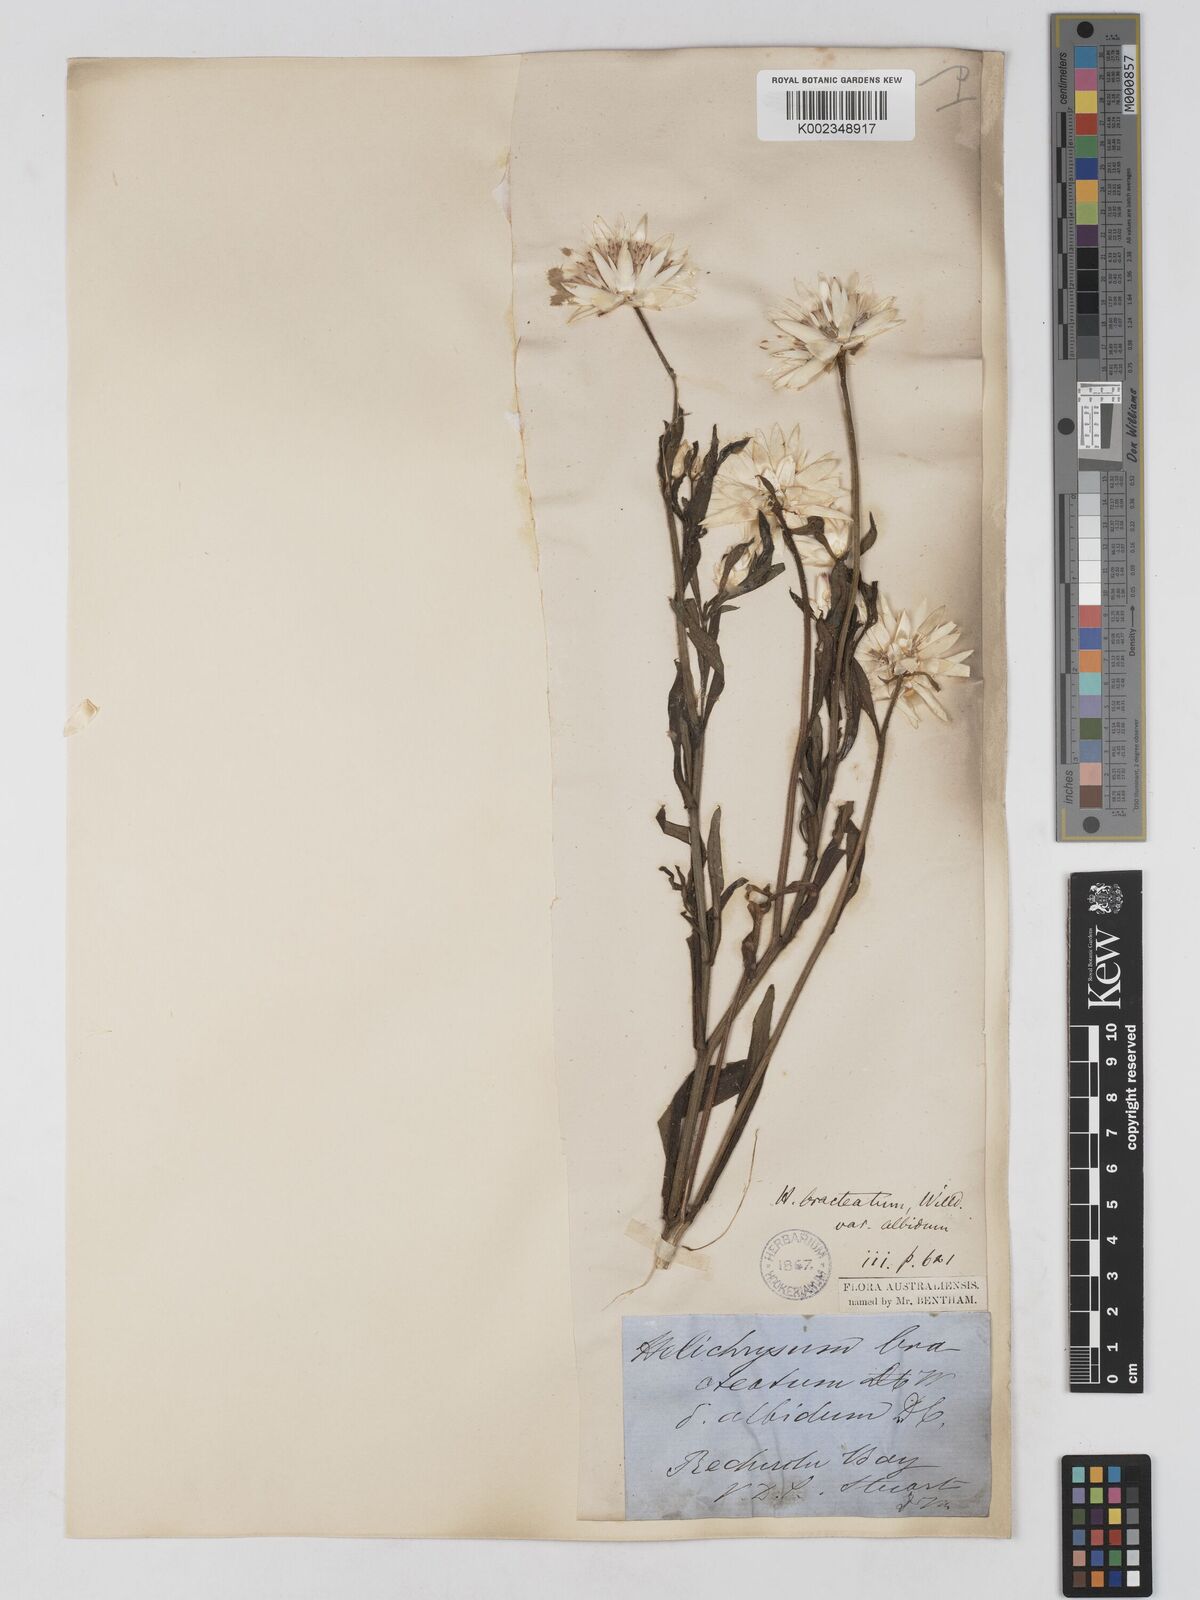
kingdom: Plantae
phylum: Tracheophyta
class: Magnoliopsida
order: Asterales
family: Asteraceae
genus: Xerochrysum
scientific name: Xerochrysum papillosum
